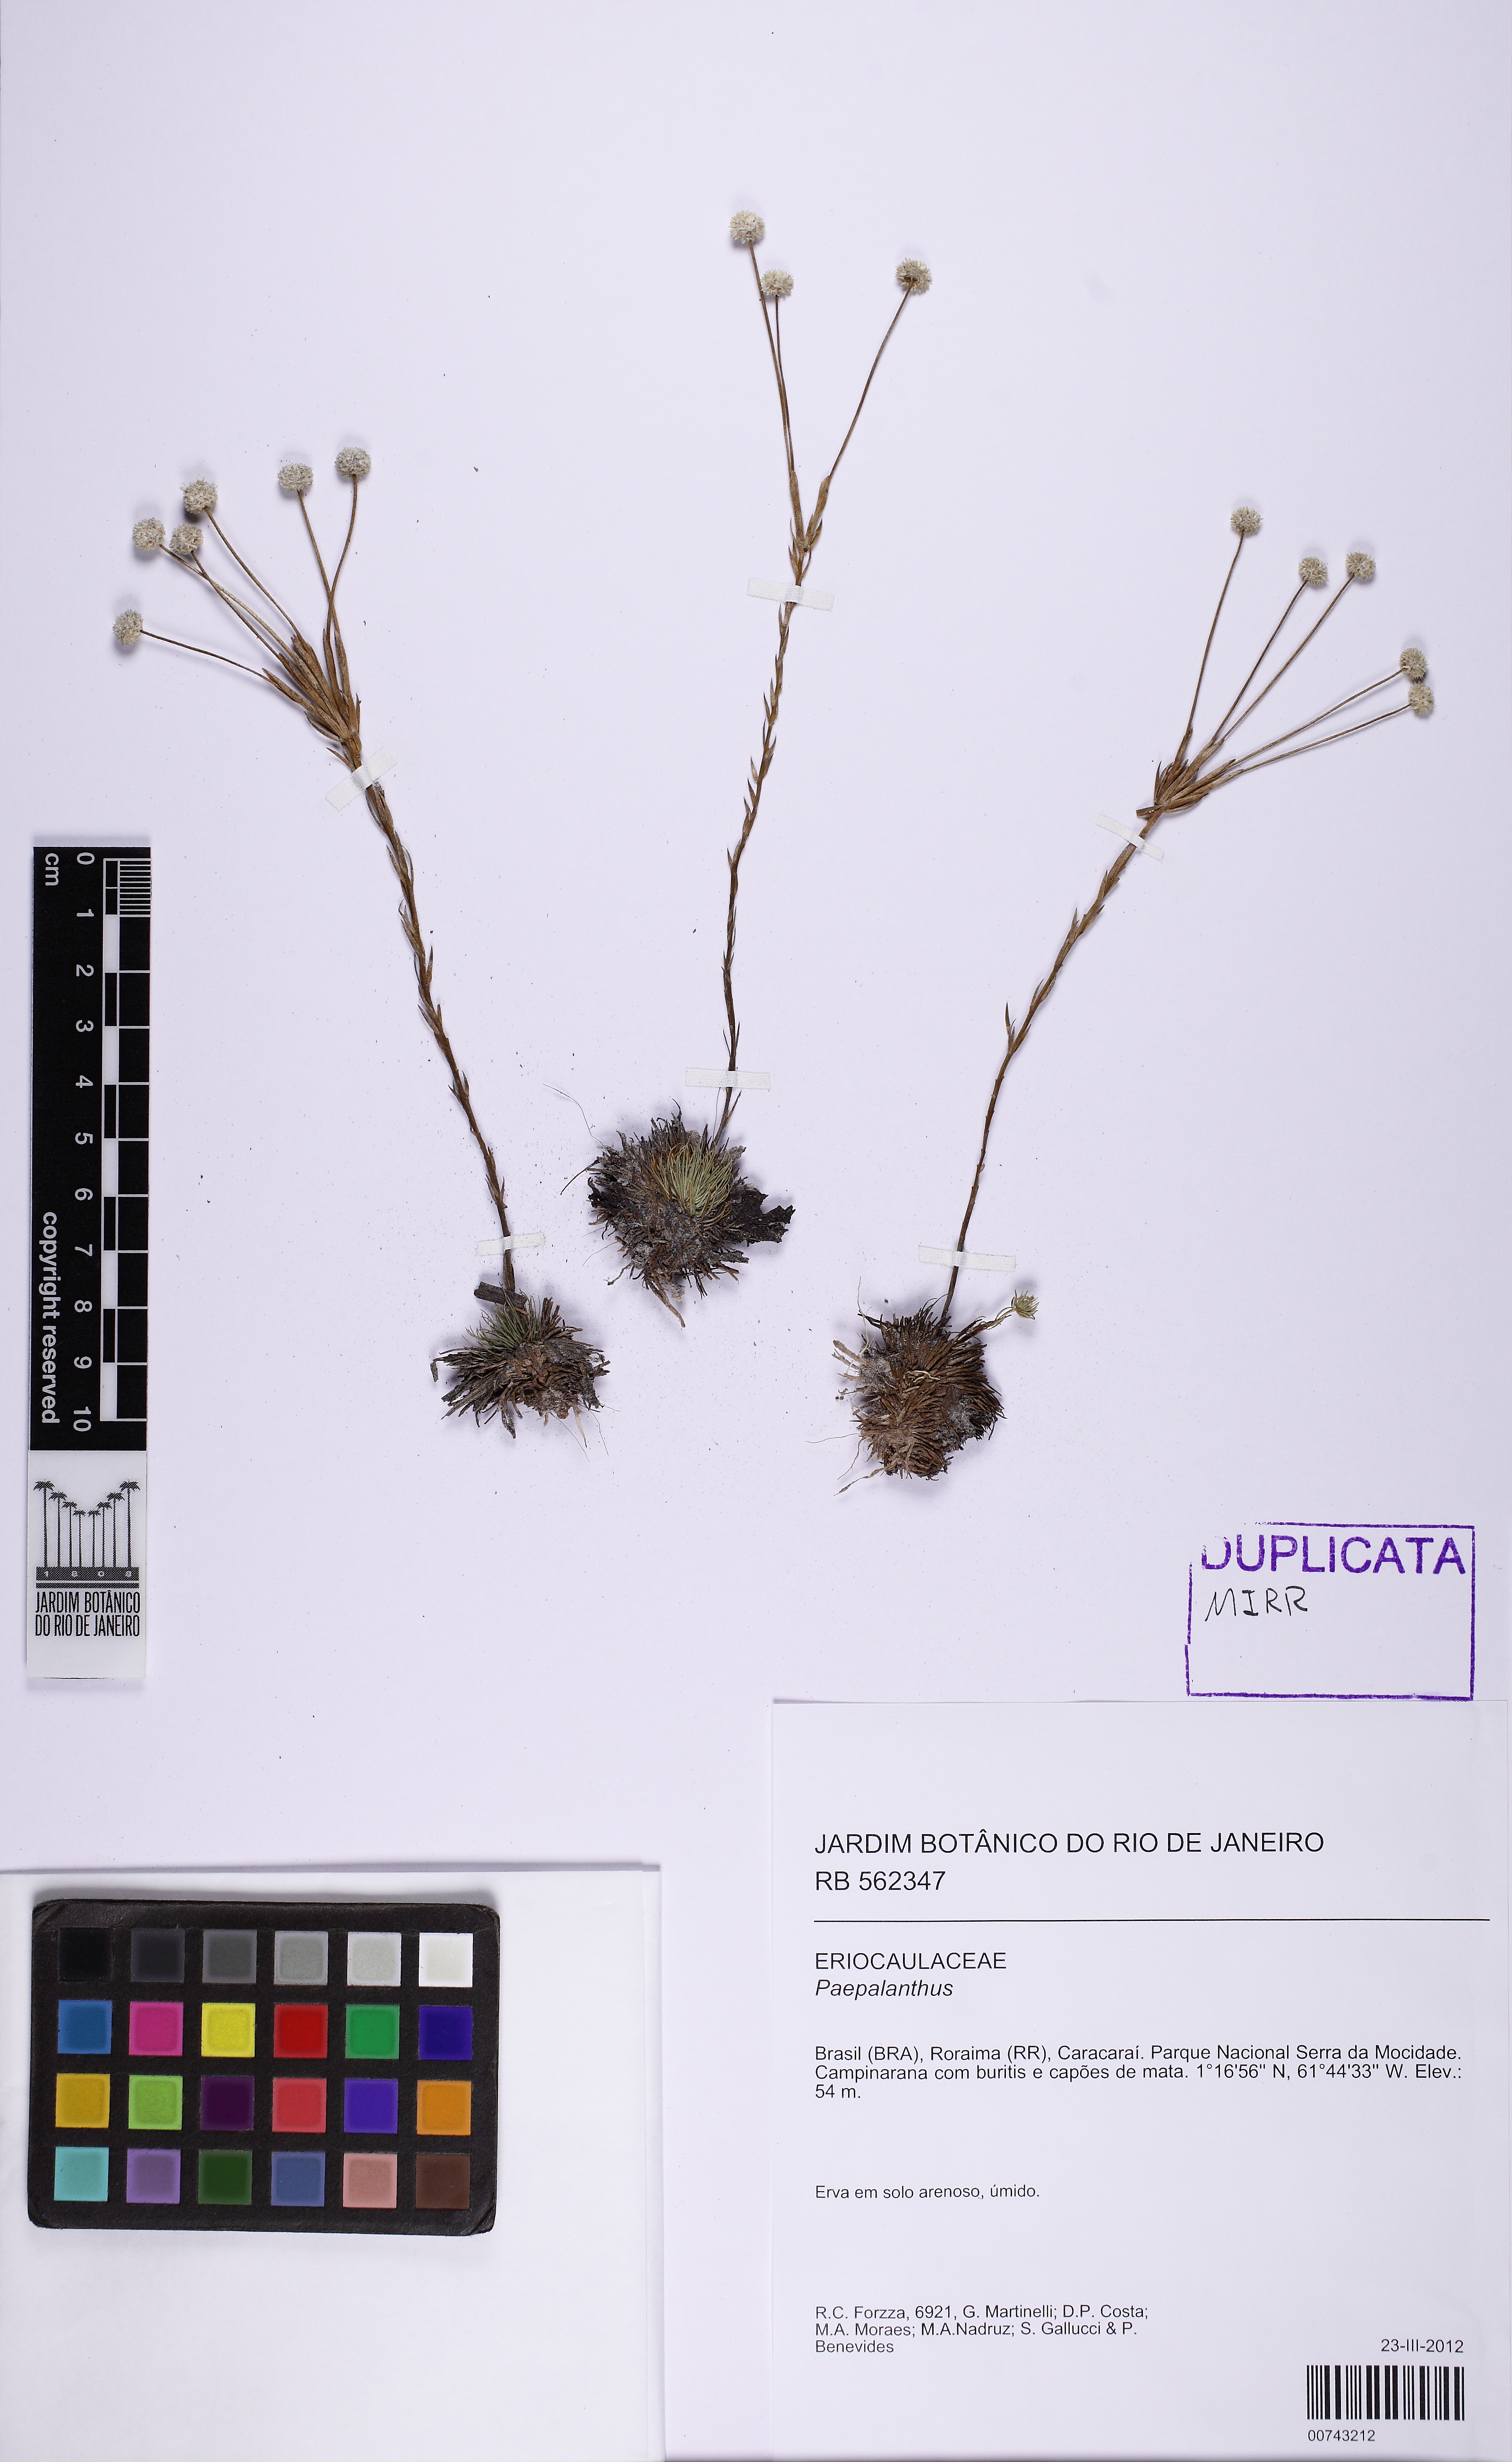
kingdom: Plantae
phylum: Tracheophyta
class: Liliopsida
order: Poales
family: Eriocaulaceae
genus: Syngonanthus
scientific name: Syngonanthus fenestratus
